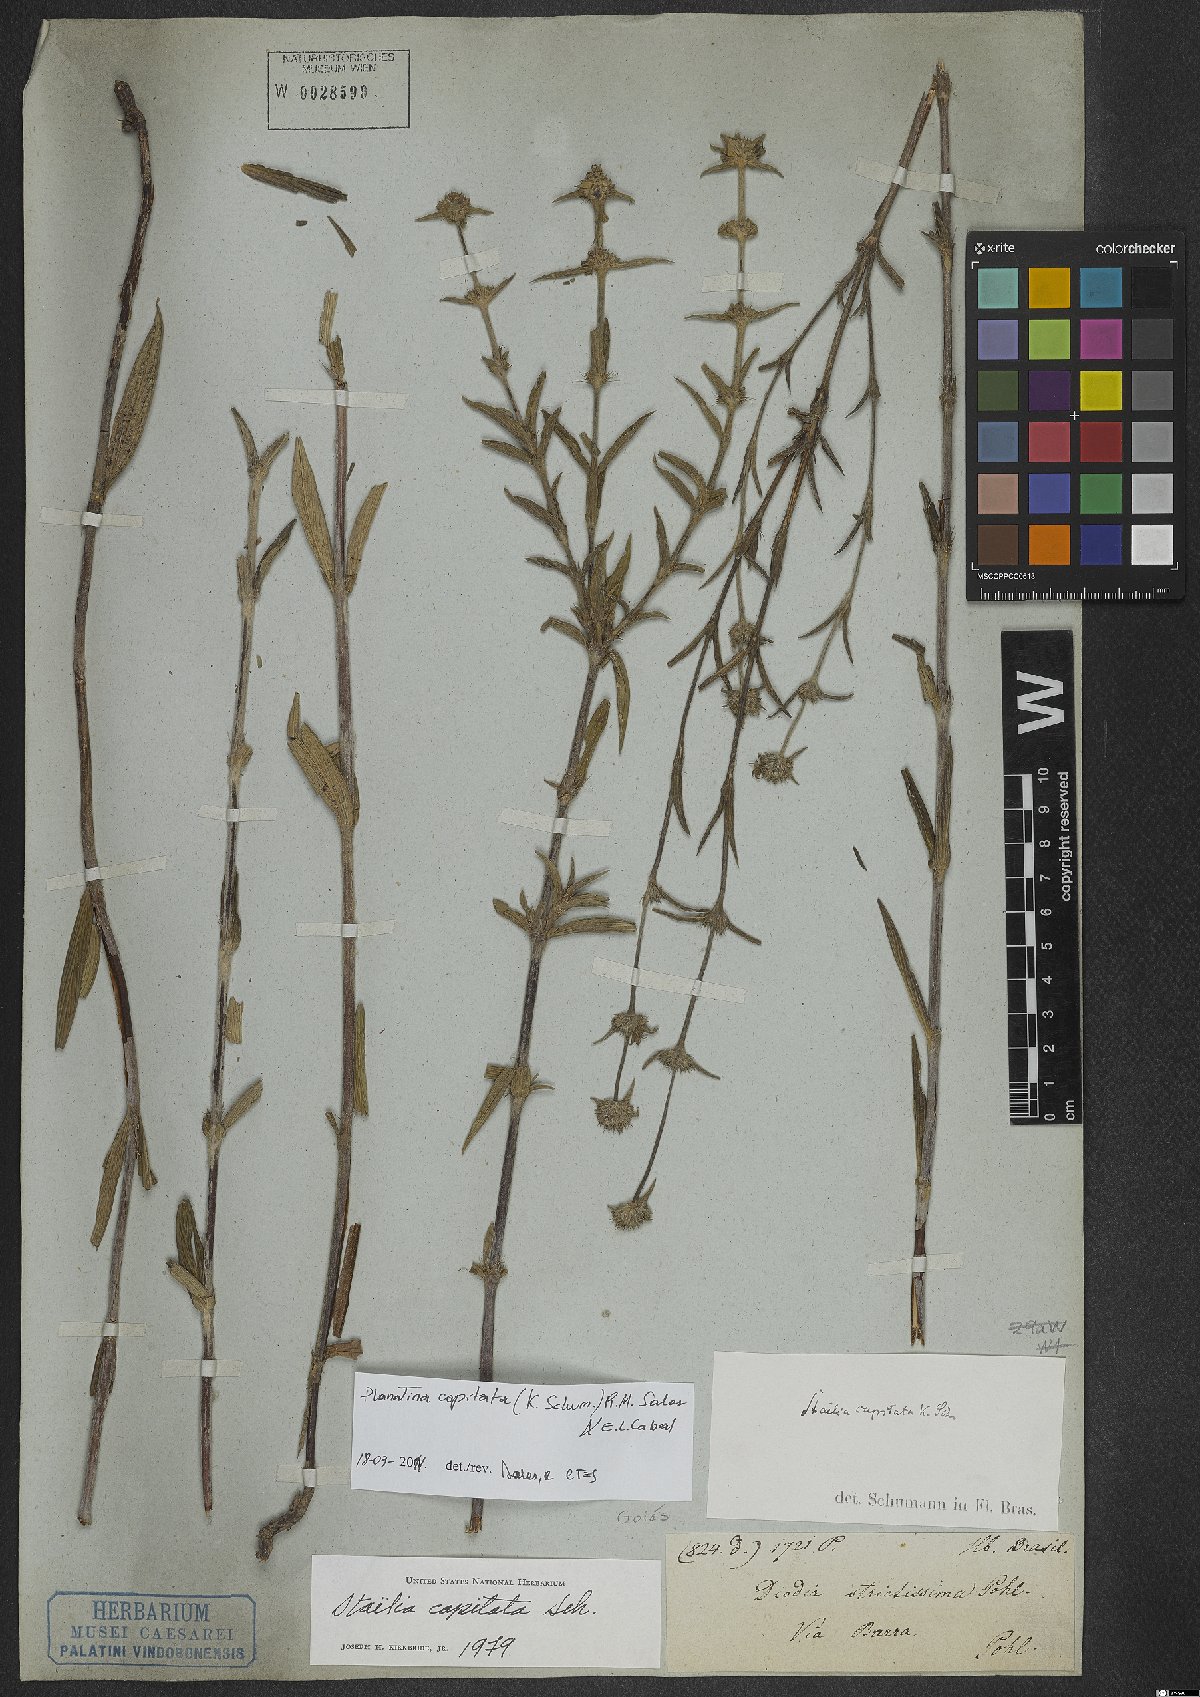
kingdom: Plantae
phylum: Tracheophyta
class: Magnoliopsida
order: Gentianales
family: Rubiaceae
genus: Planaltina
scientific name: Planaltina capitata
